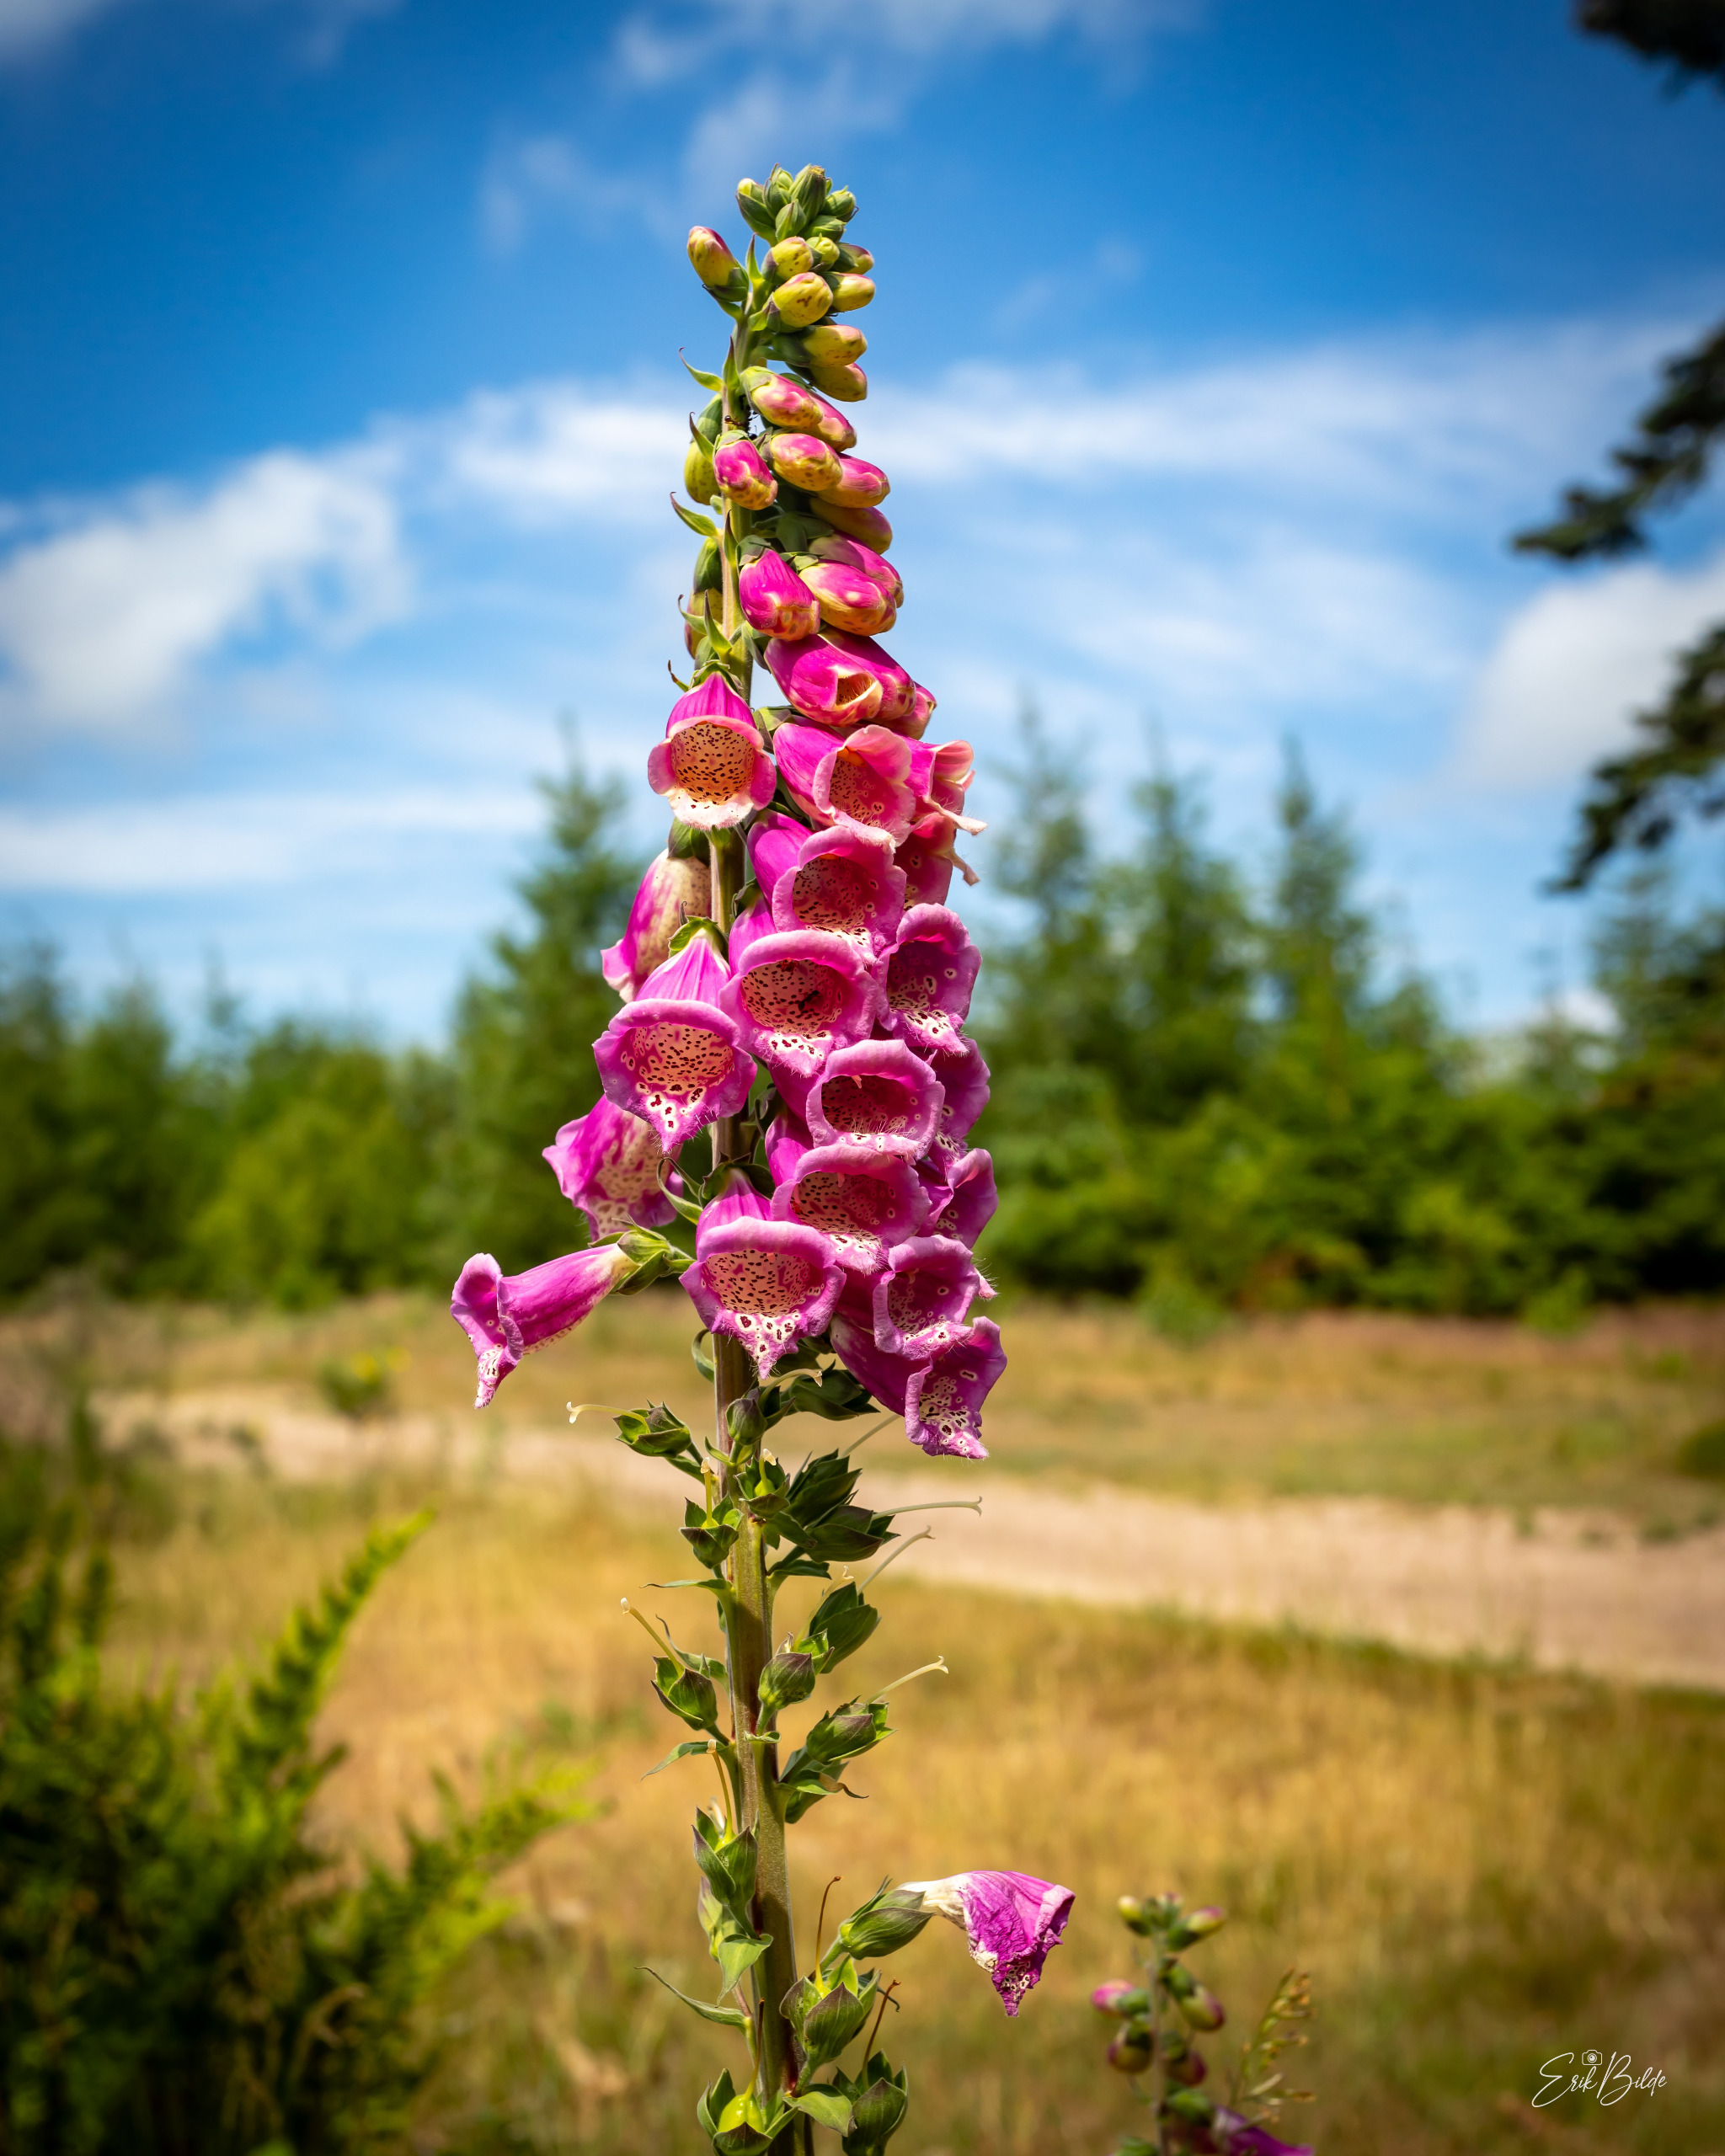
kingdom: Plantae
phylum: Tracheophyta
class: Magnoliopsida
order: Lamiales
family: Plantaginaceae
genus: Digitalis
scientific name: Digitalis purpurea
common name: Almindelig fingerbøl
